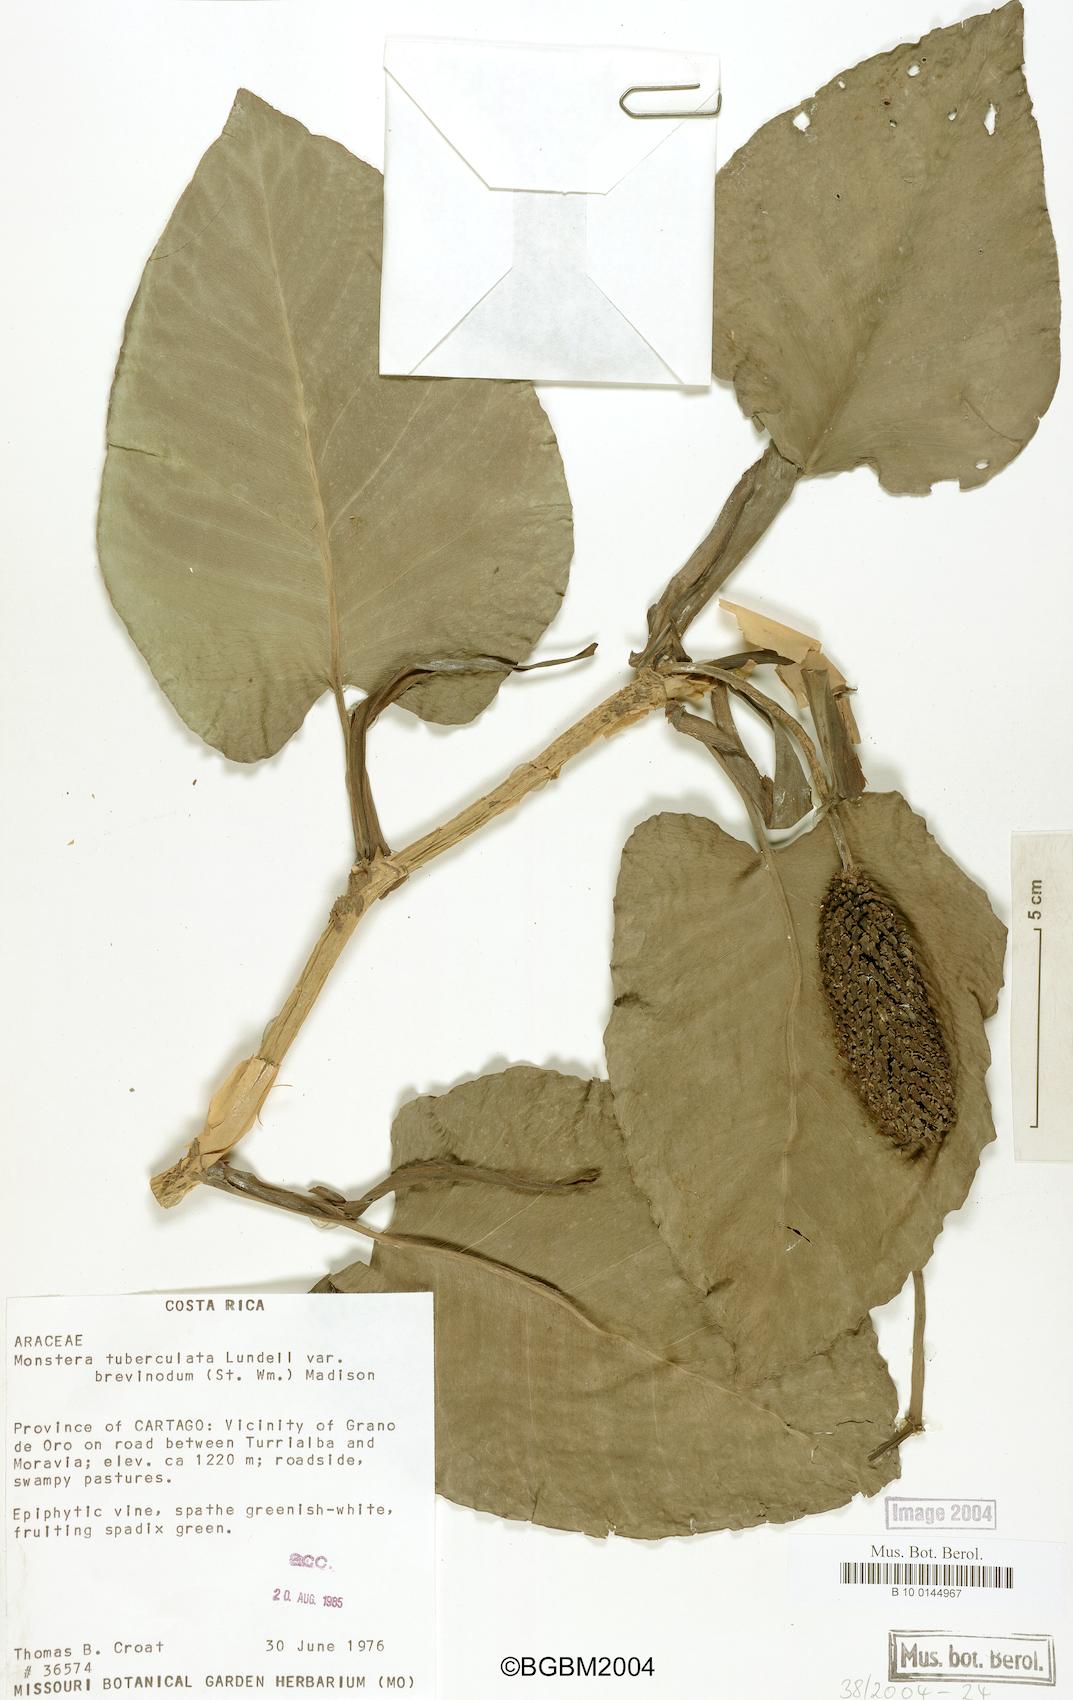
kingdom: Plantae
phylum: Tracheophyta
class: Liliopsida
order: Alismatales
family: Araceae
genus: Monstera
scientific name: Monstera tuberculata
